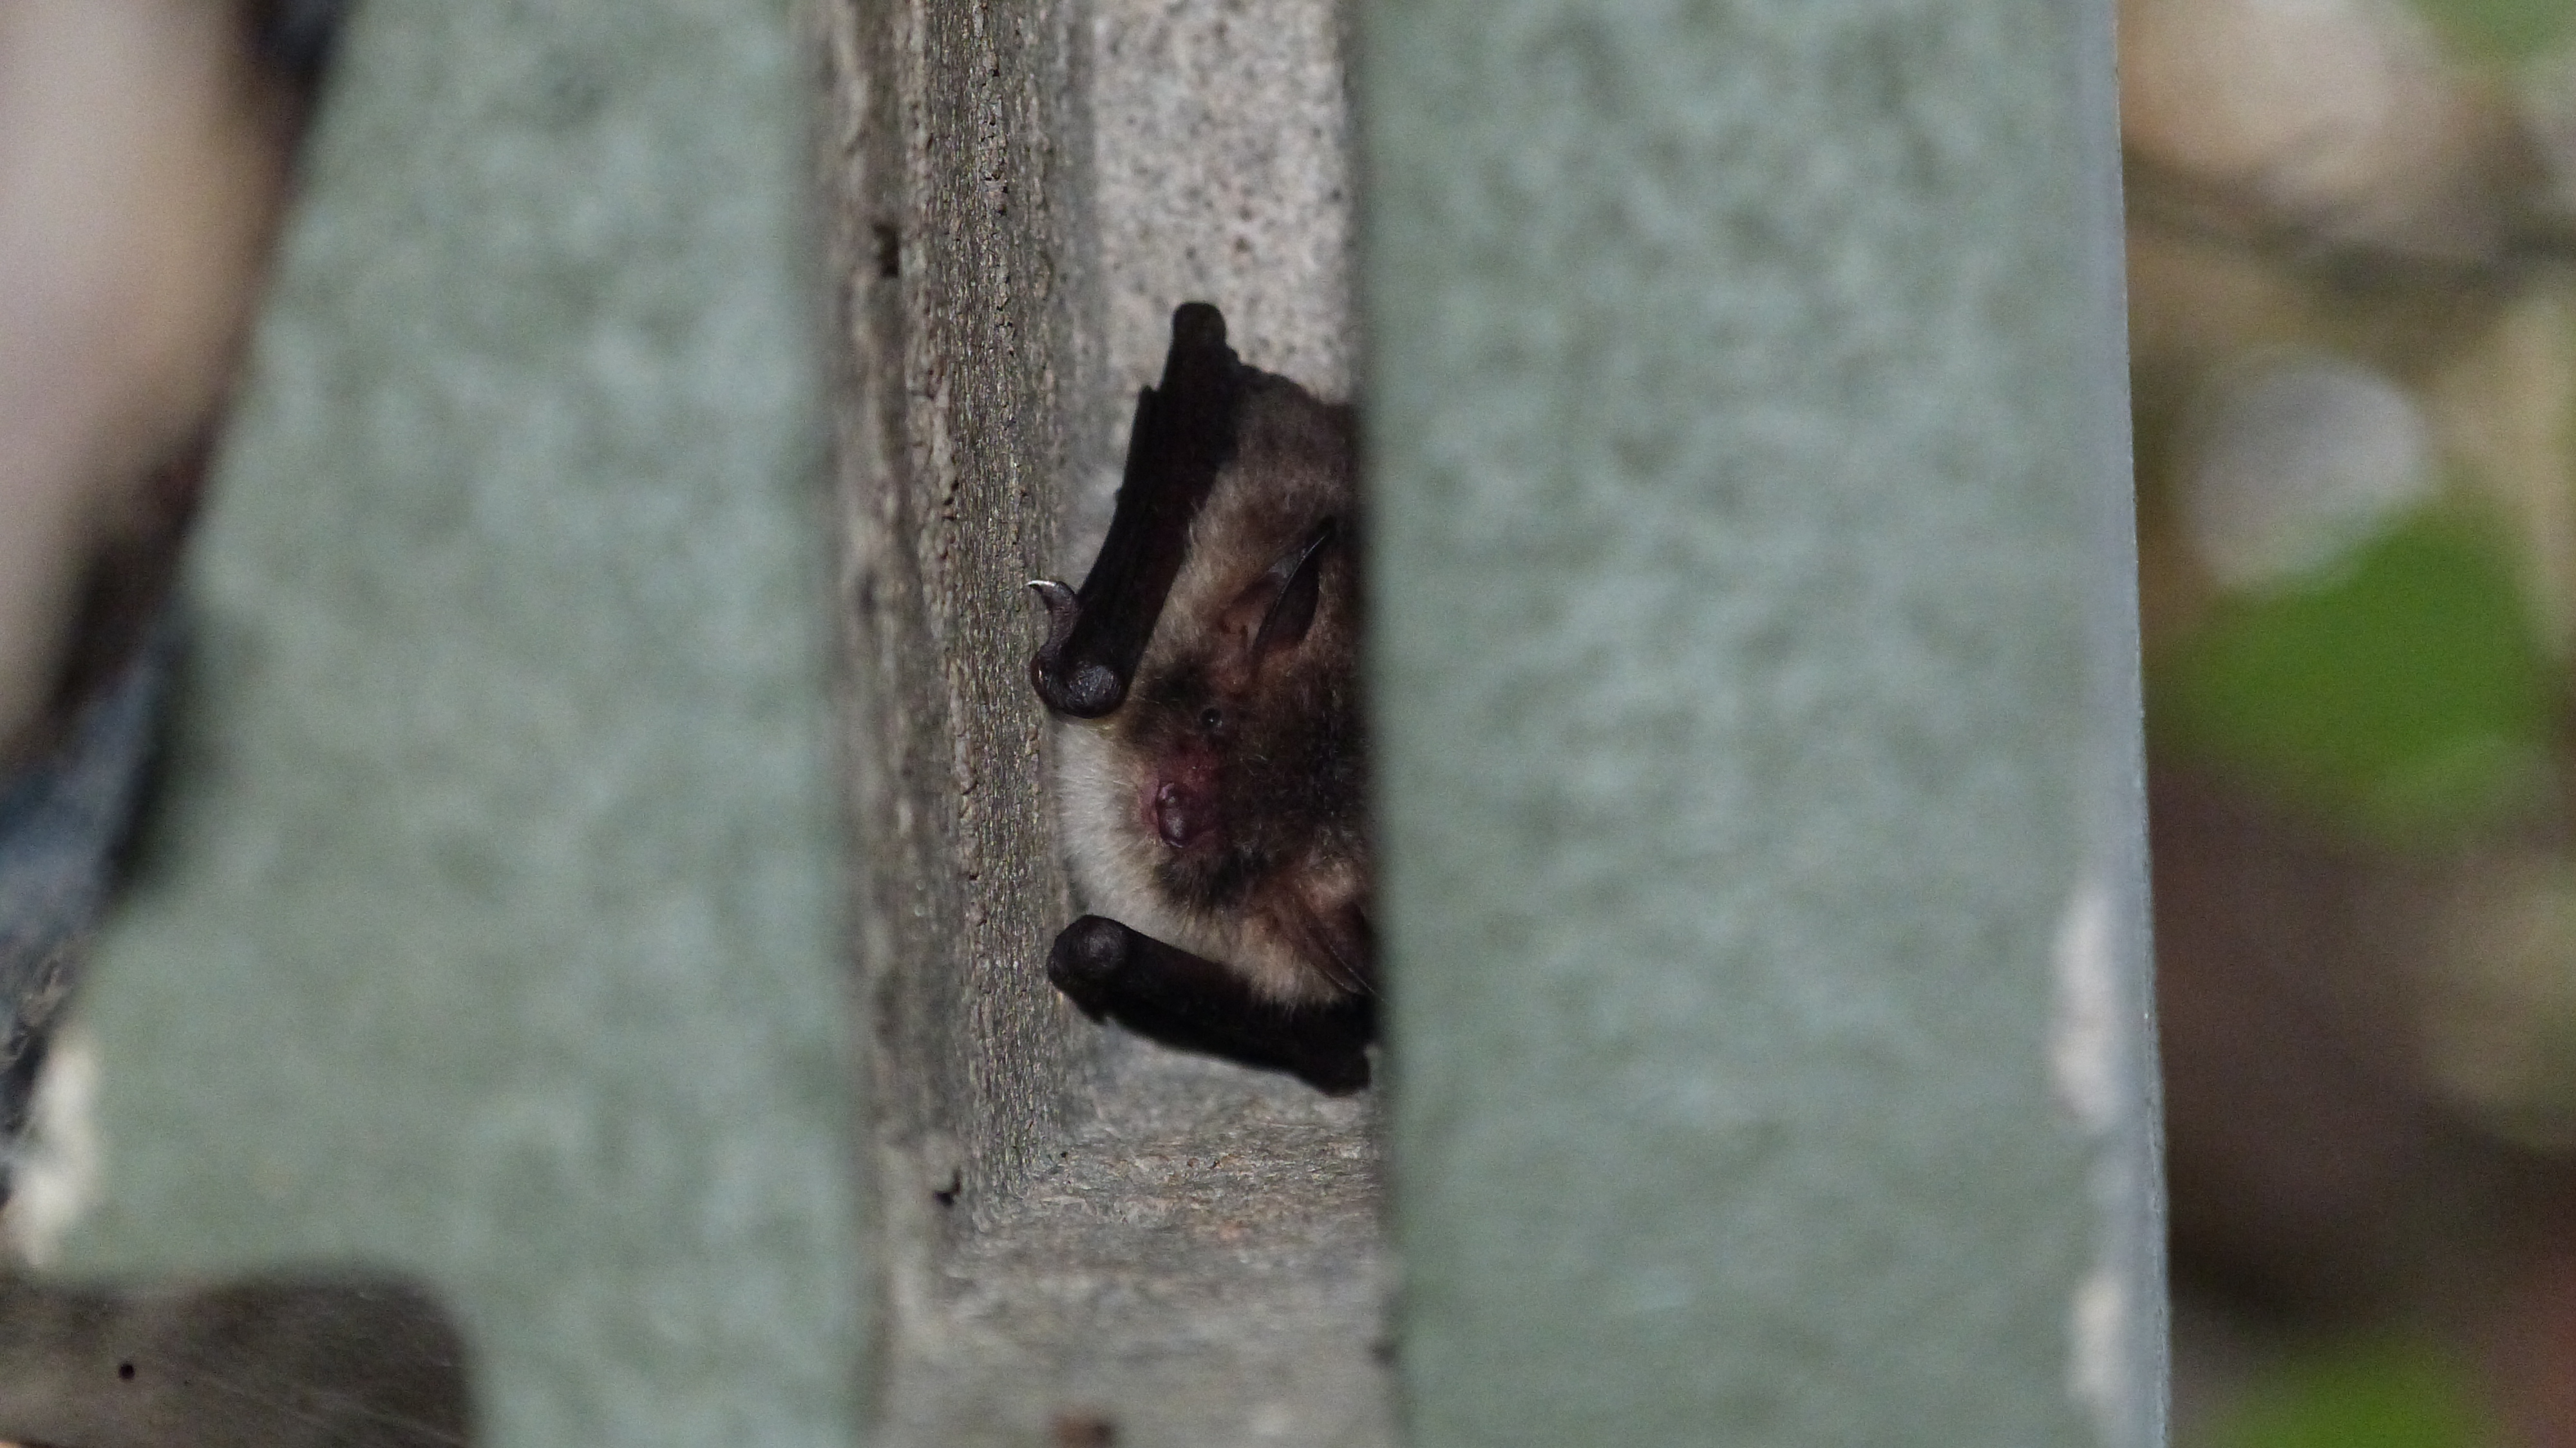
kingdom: Animalia
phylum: Chordata
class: Mammalia
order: Chiroptera
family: Vespertilionidae
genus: Myotis
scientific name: Myotis nattereri
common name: Natterer's bat
